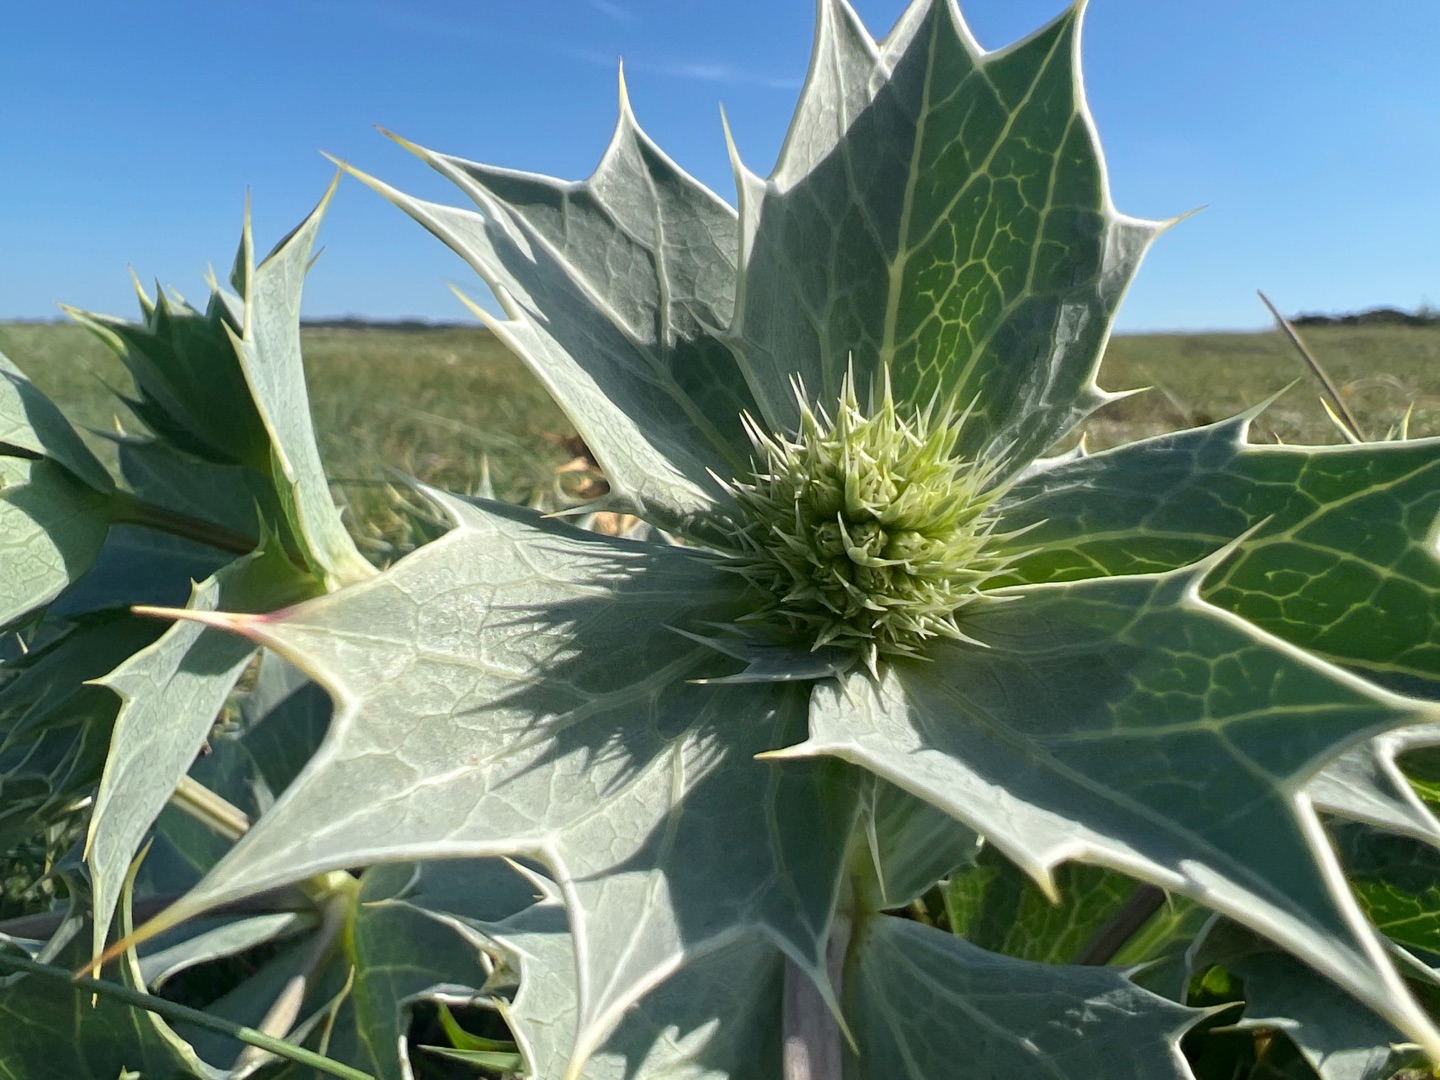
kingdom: Plantae
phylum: Tracheophyta
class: Magnoliopsida
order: Apiales
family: Apiaceae
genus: Eryngium
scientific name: Eryngium maritimum
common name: Strand-mandstro
